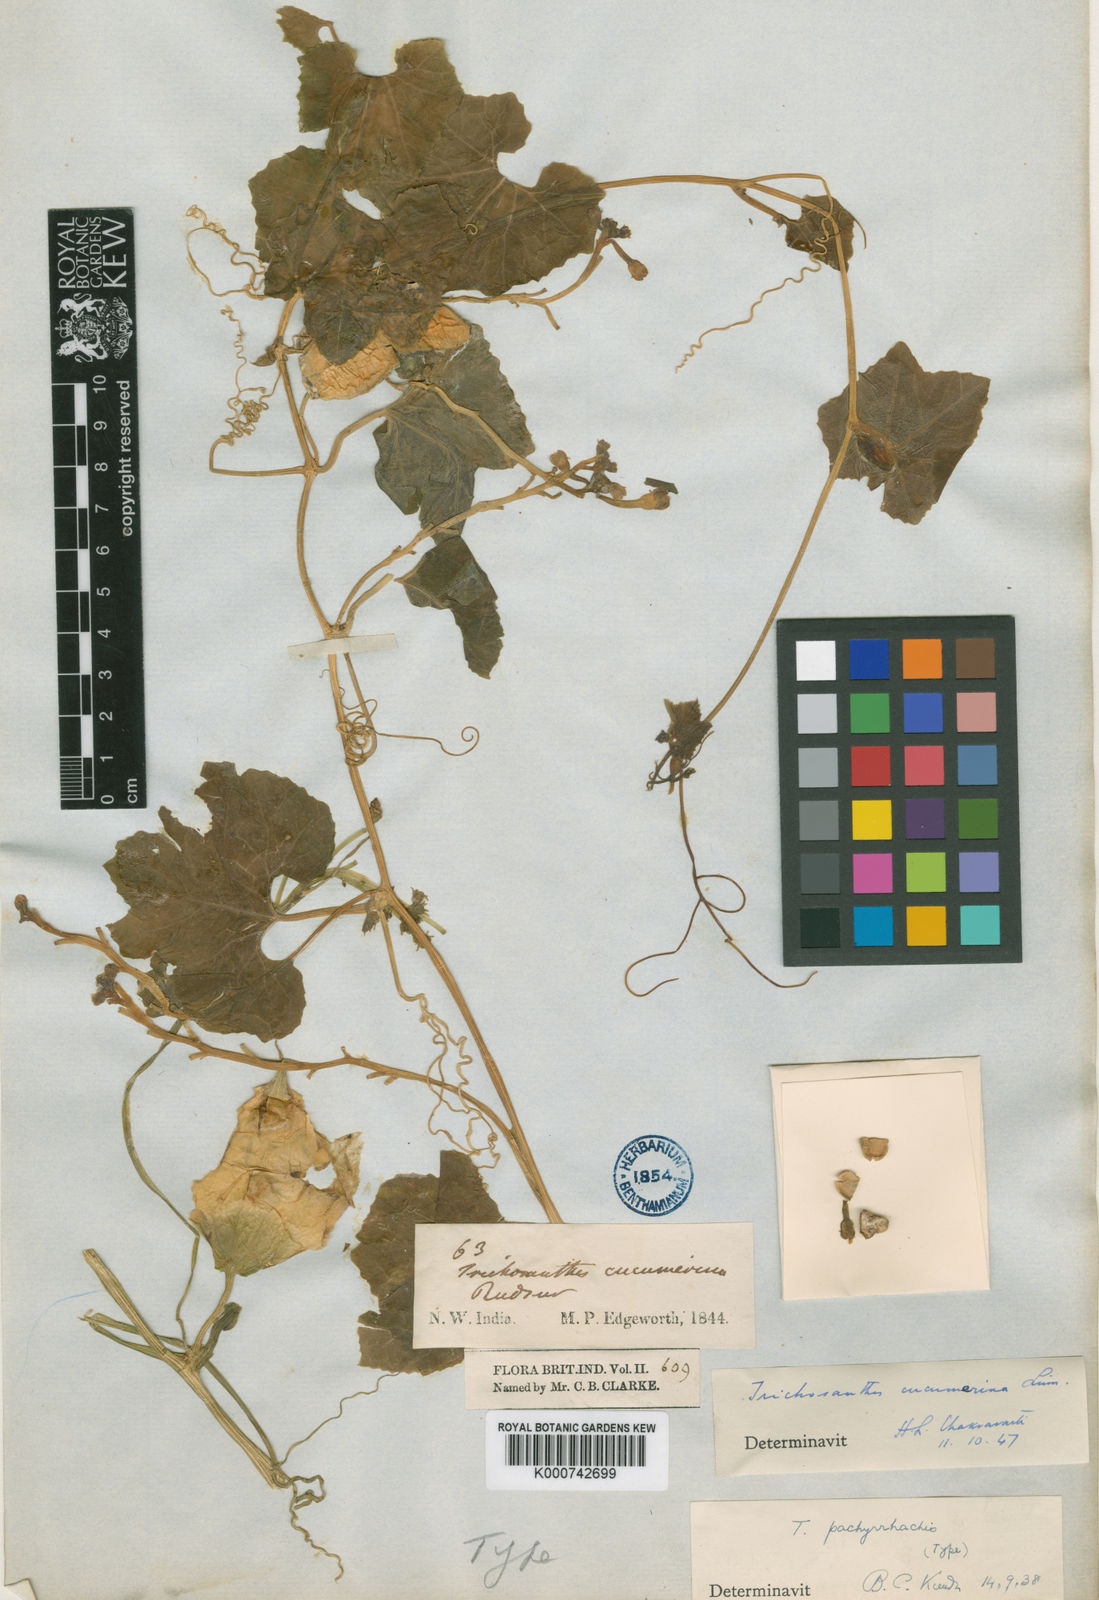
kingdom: Plantae
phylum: Tracheophyta
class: Magnoliopsida
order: Cucurbitales
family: Cucurbitaceae
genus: Trichosanthes
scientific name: Trichosanthes cucumerina
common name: Snakegourd
